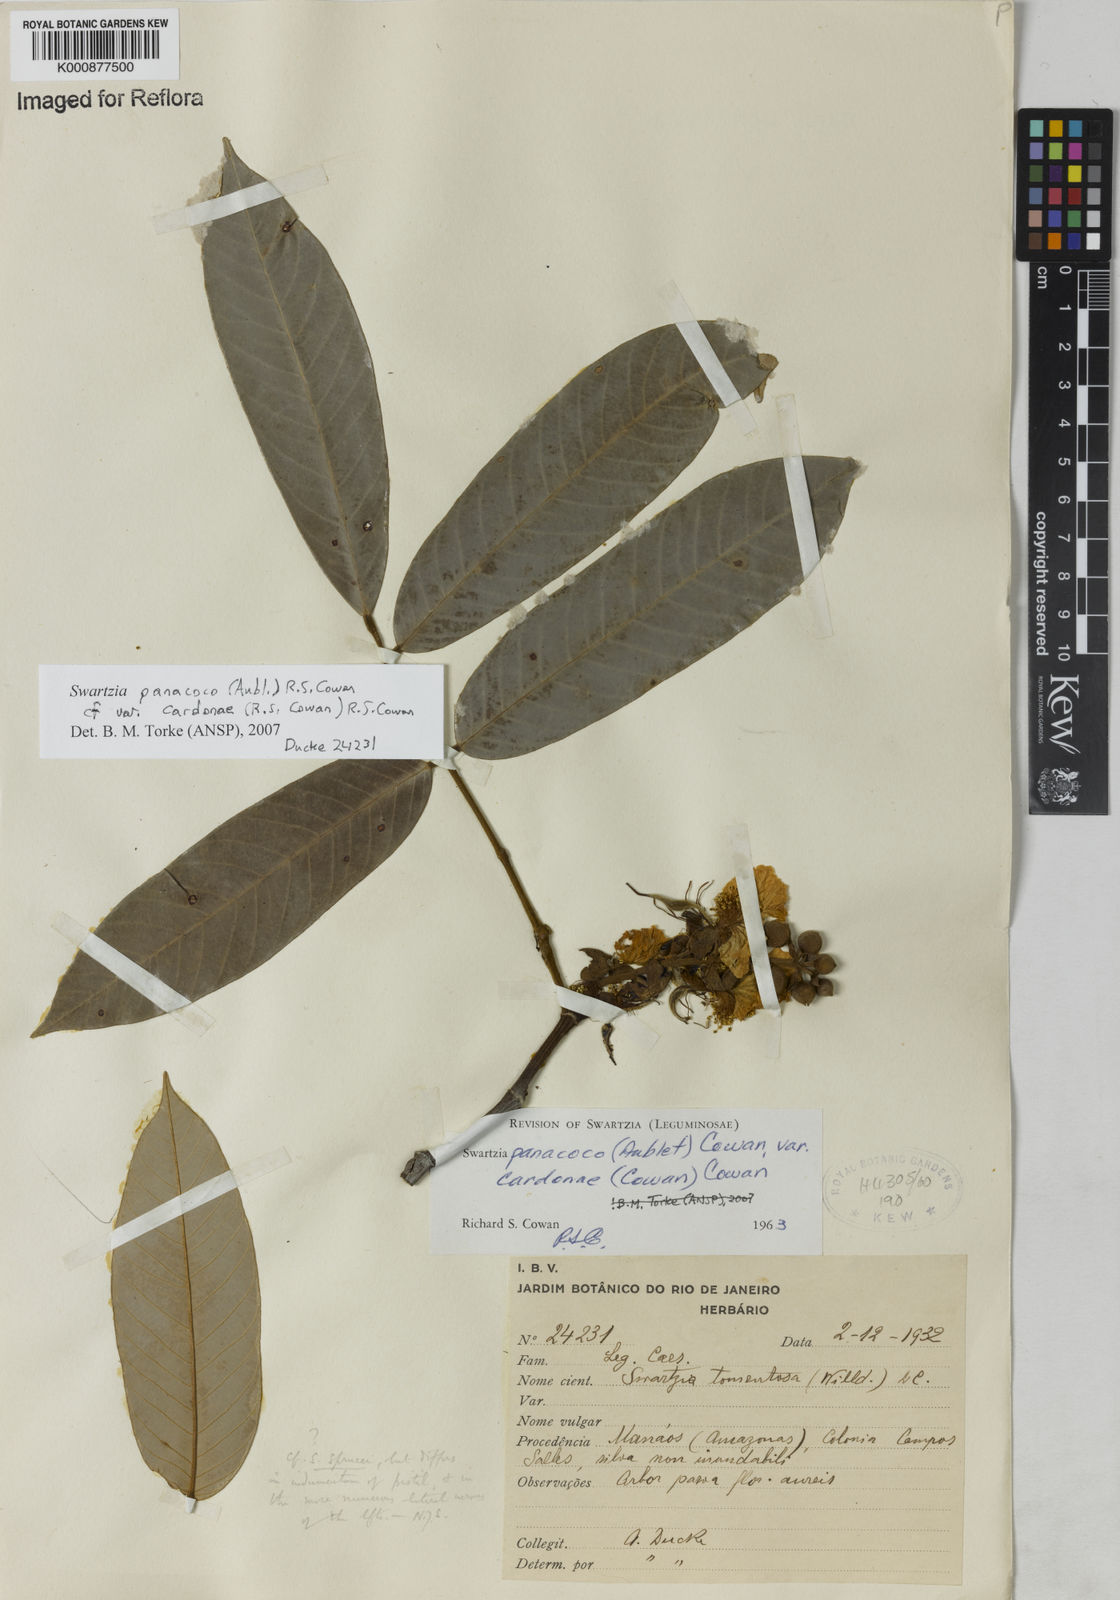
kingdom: Plantae
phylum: Tracheophyta
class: Magnoliopsida
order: Fabales
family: Fabaceae
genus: Swartzia
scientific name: Swartzia panacoco
